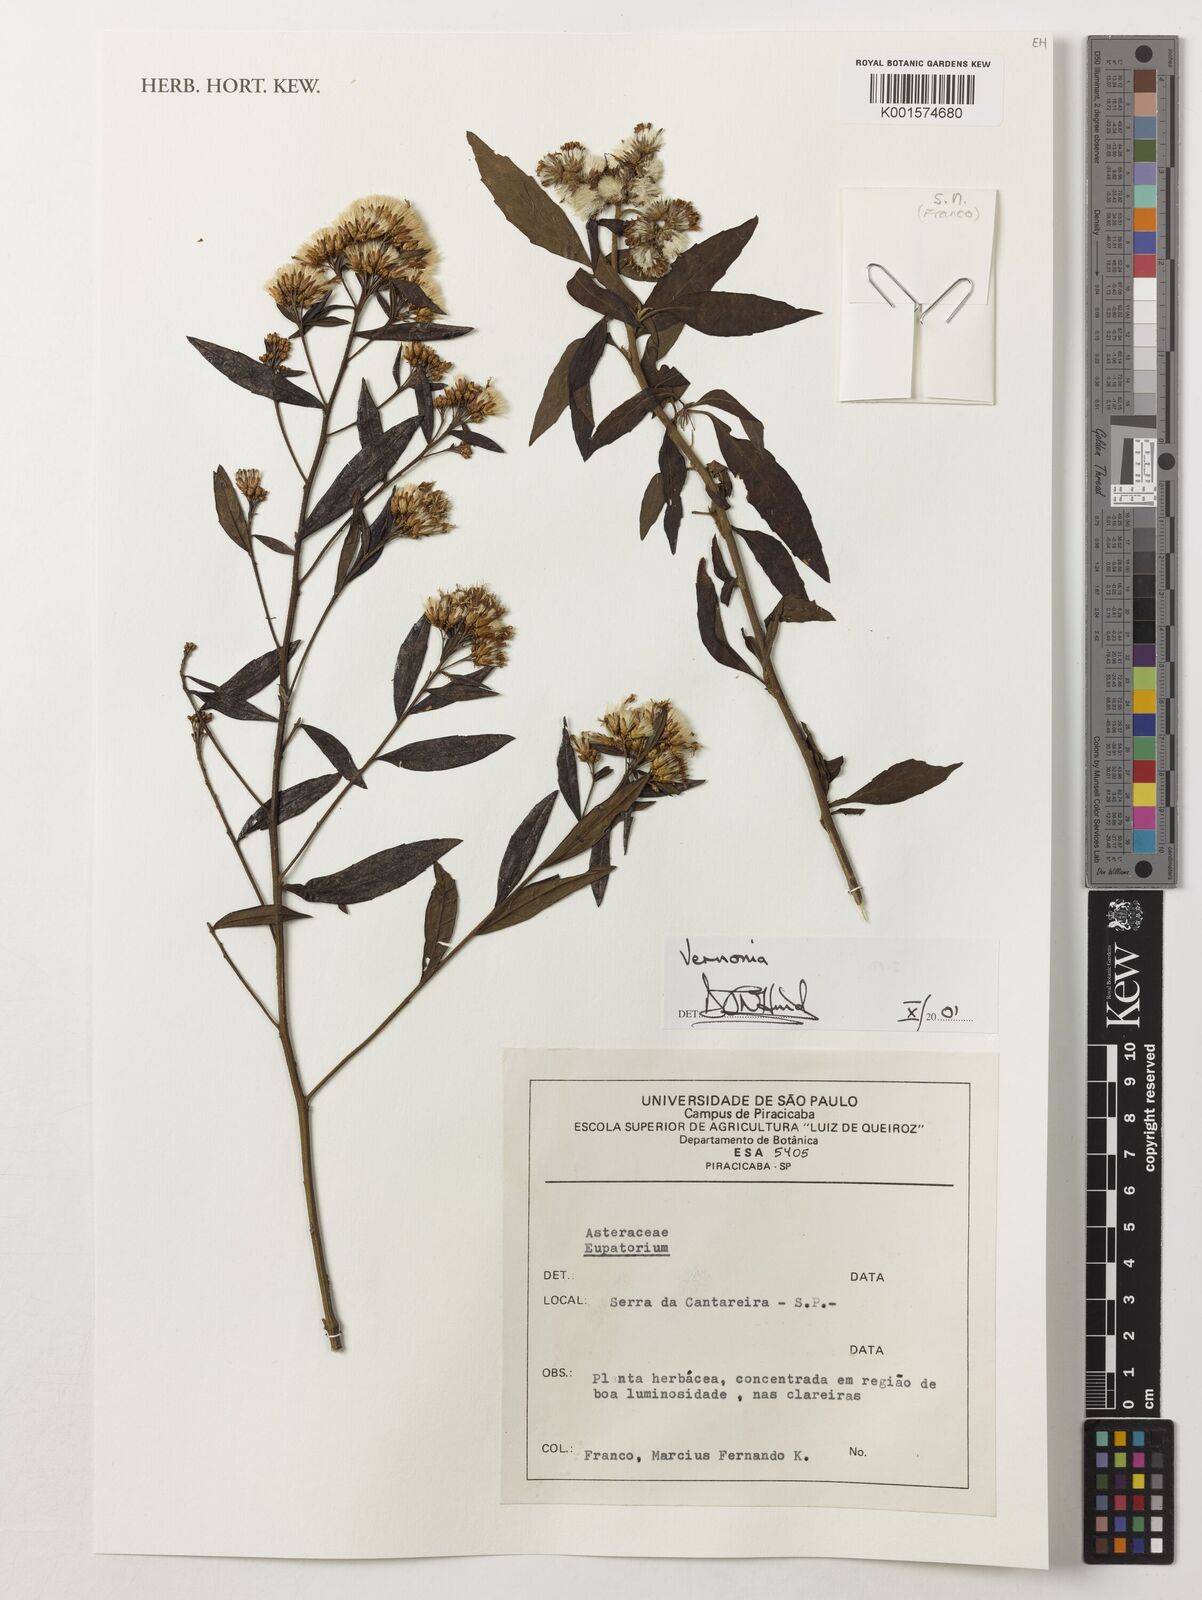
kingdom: Plantae
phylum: Tracheophyta
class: Magnoliopsida
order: Asterales
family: Asteraceae
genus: Vernonia
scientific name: Vernonia
